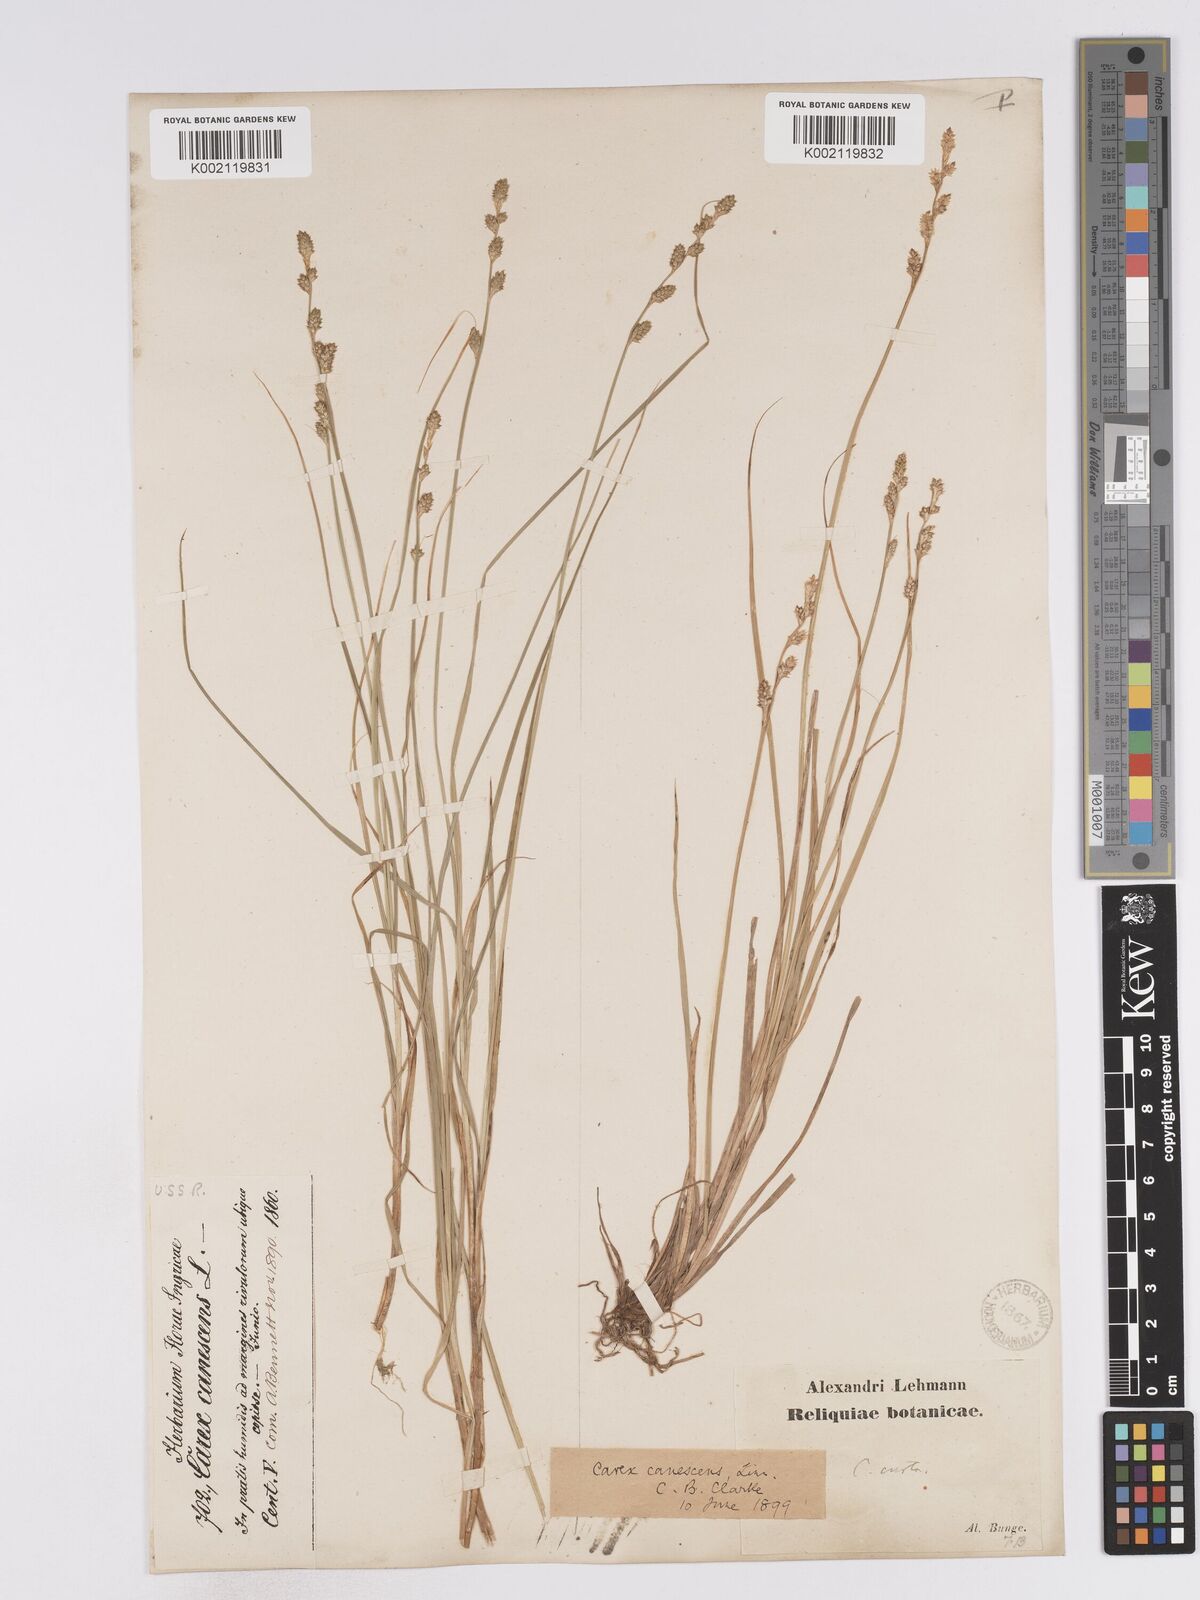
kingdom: Plantae
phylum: Tracheophyta
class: Liliopsida
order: Poales
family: Cyperaceae
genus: Carex
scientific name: Carex curta
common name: White sedge
